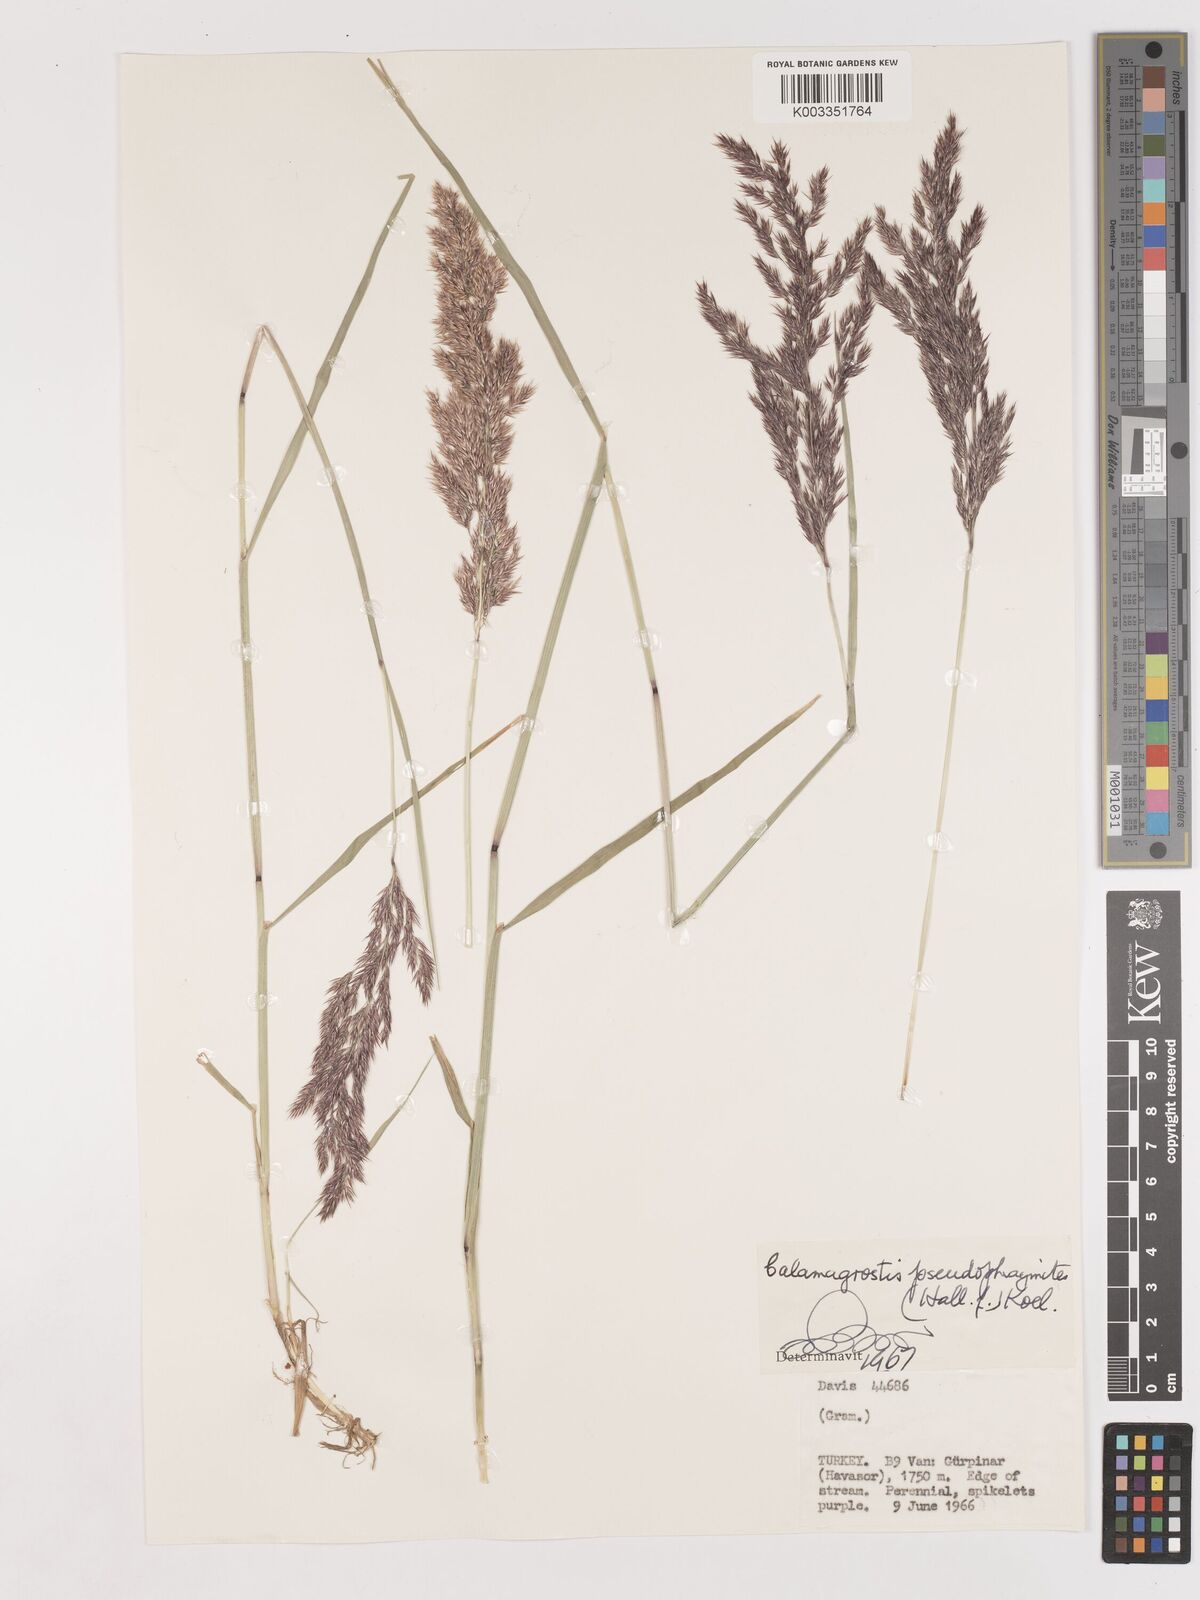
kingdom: Plantae
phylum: Tracheophyta
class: Liliopsida
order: Poales
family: Poaceae
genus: Calamagrostis
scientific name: Calamagrostis pseudophragmites
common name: Coastal small-reed
